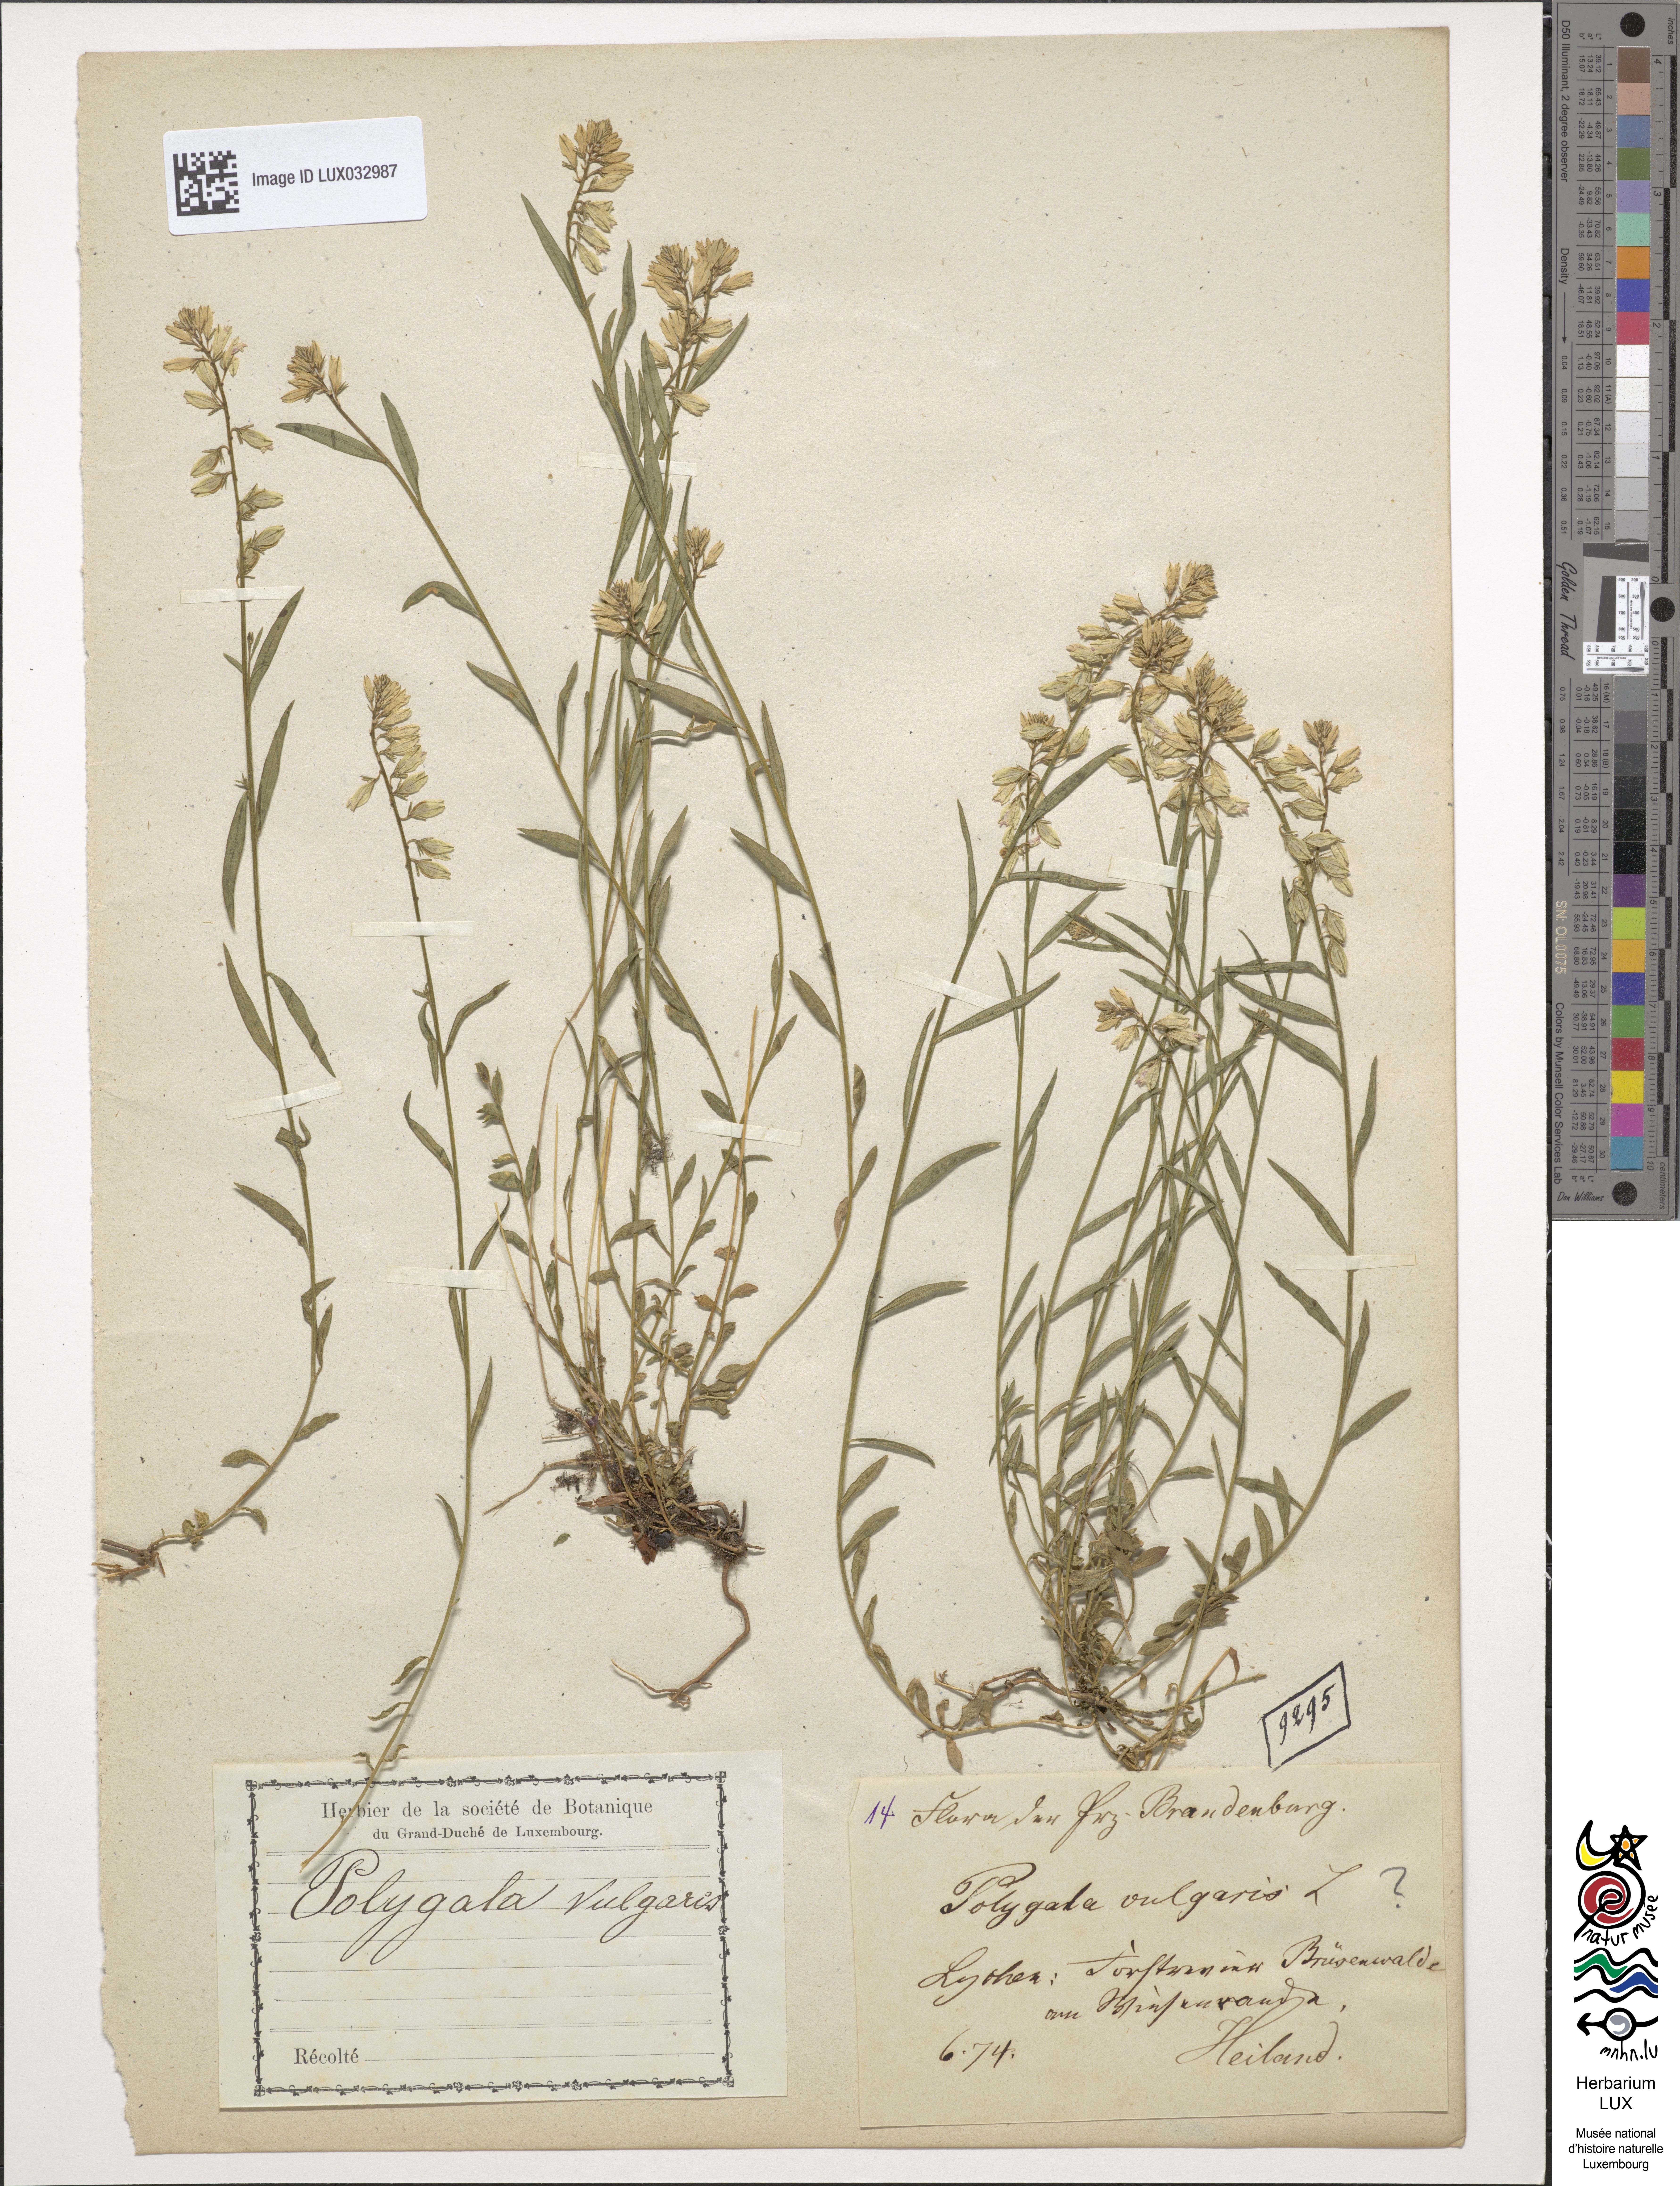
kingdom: Plantae
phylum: Tracheophyta
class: Magnoliopsida
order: Fabales
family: Polygalaceae
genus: Polygala
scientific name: Polygala vulgaris
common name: Common milkwort
